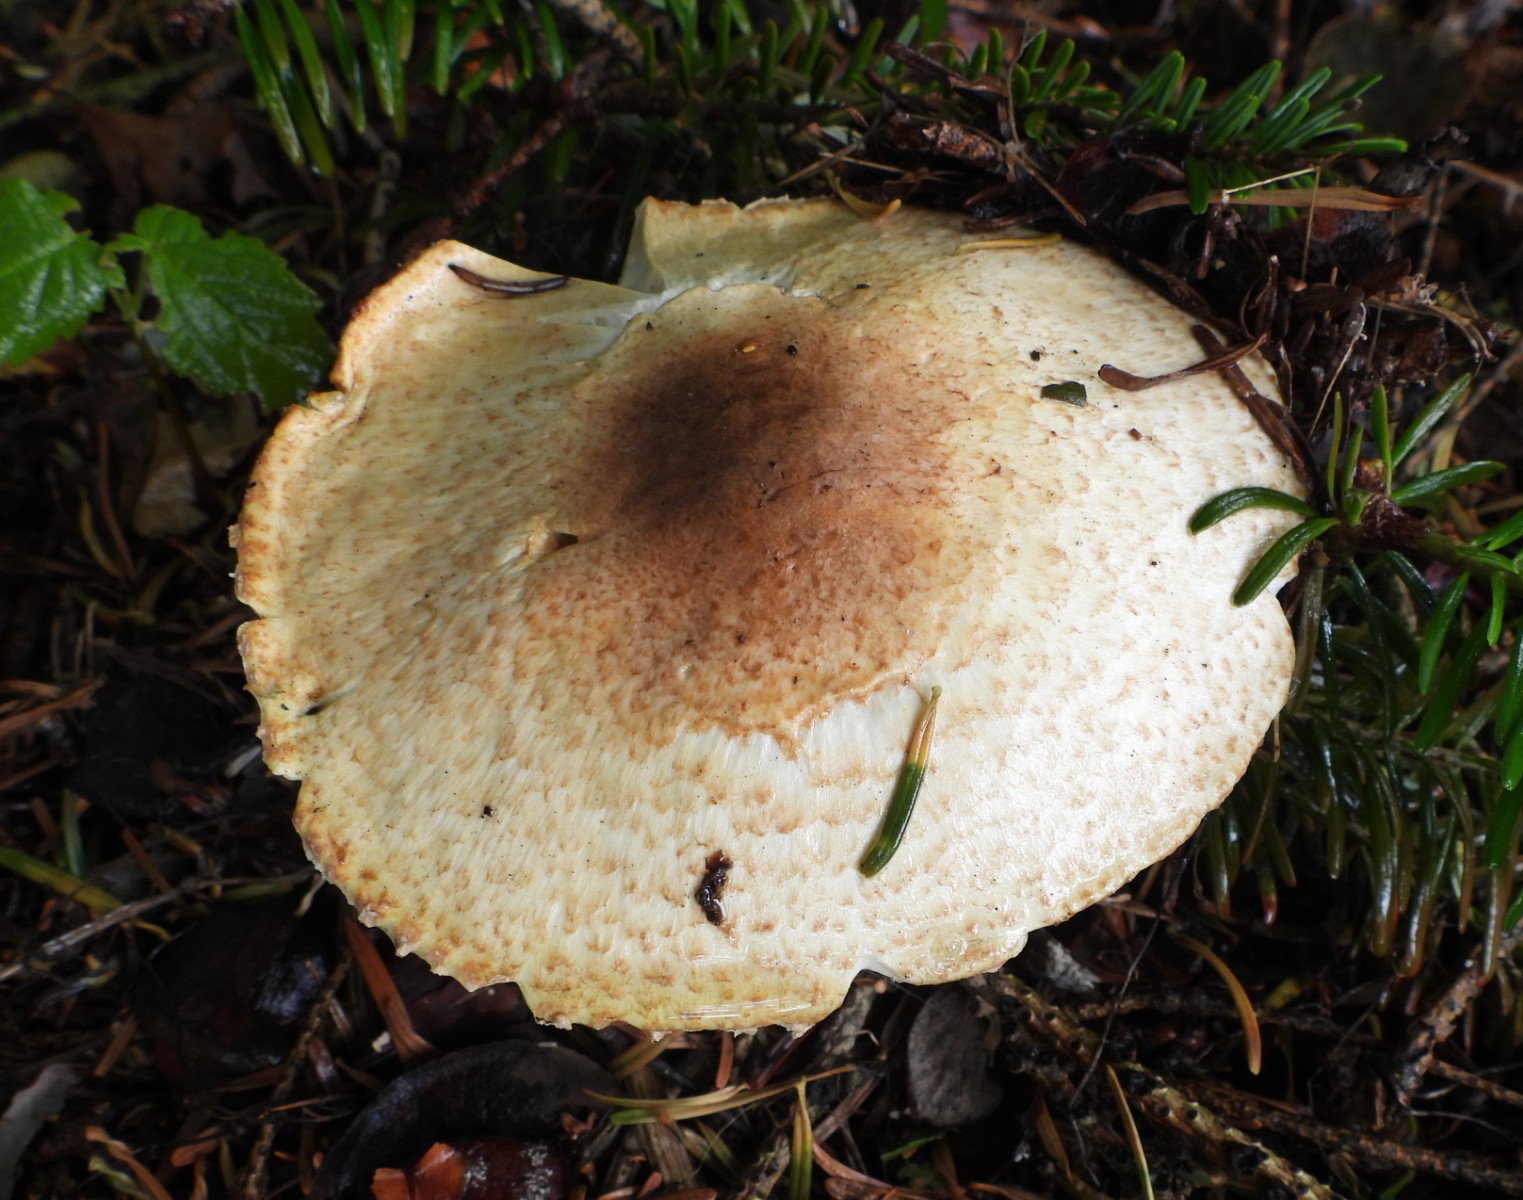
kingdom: Fungi
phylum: Basidiomycota
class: Agaricomycetes
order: Agaricales
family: Agaricaceae
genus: Agaricus
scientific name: Agaricus augustus
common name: prægtig champignon
